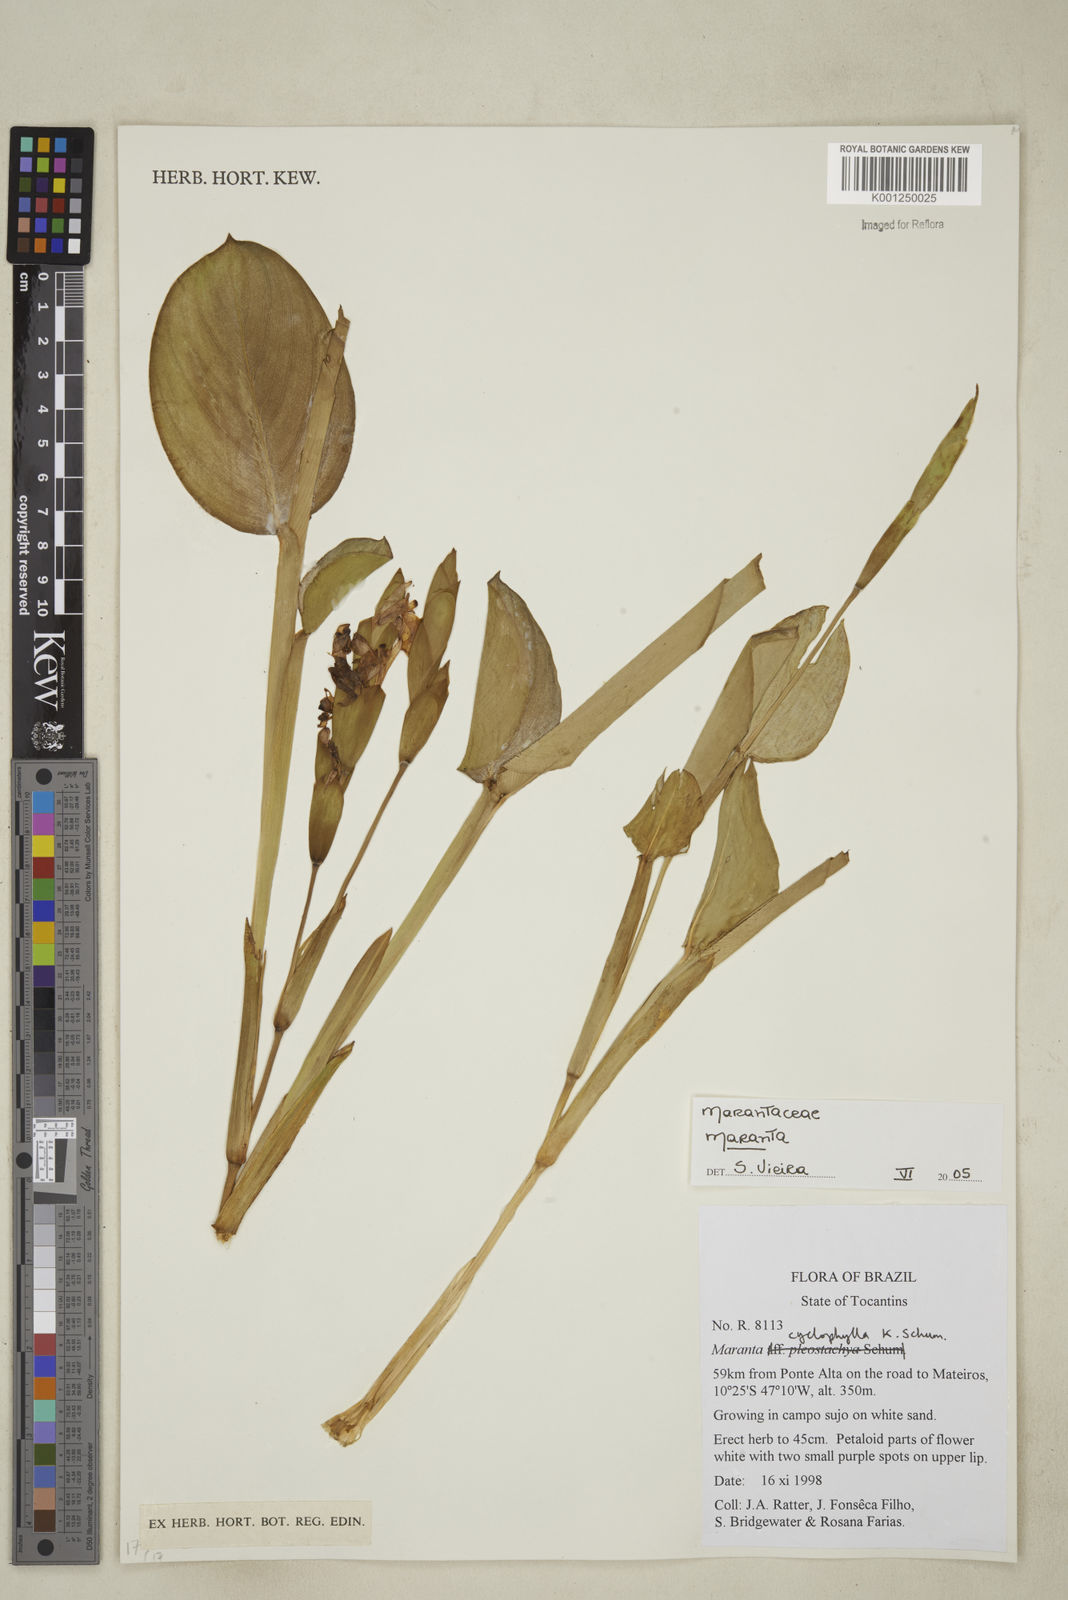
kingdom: Plantae
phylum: Tracheophyta
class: Liliopsida
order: Zingiberales
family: Marantaceae
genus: Maranta
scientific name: Maranta
